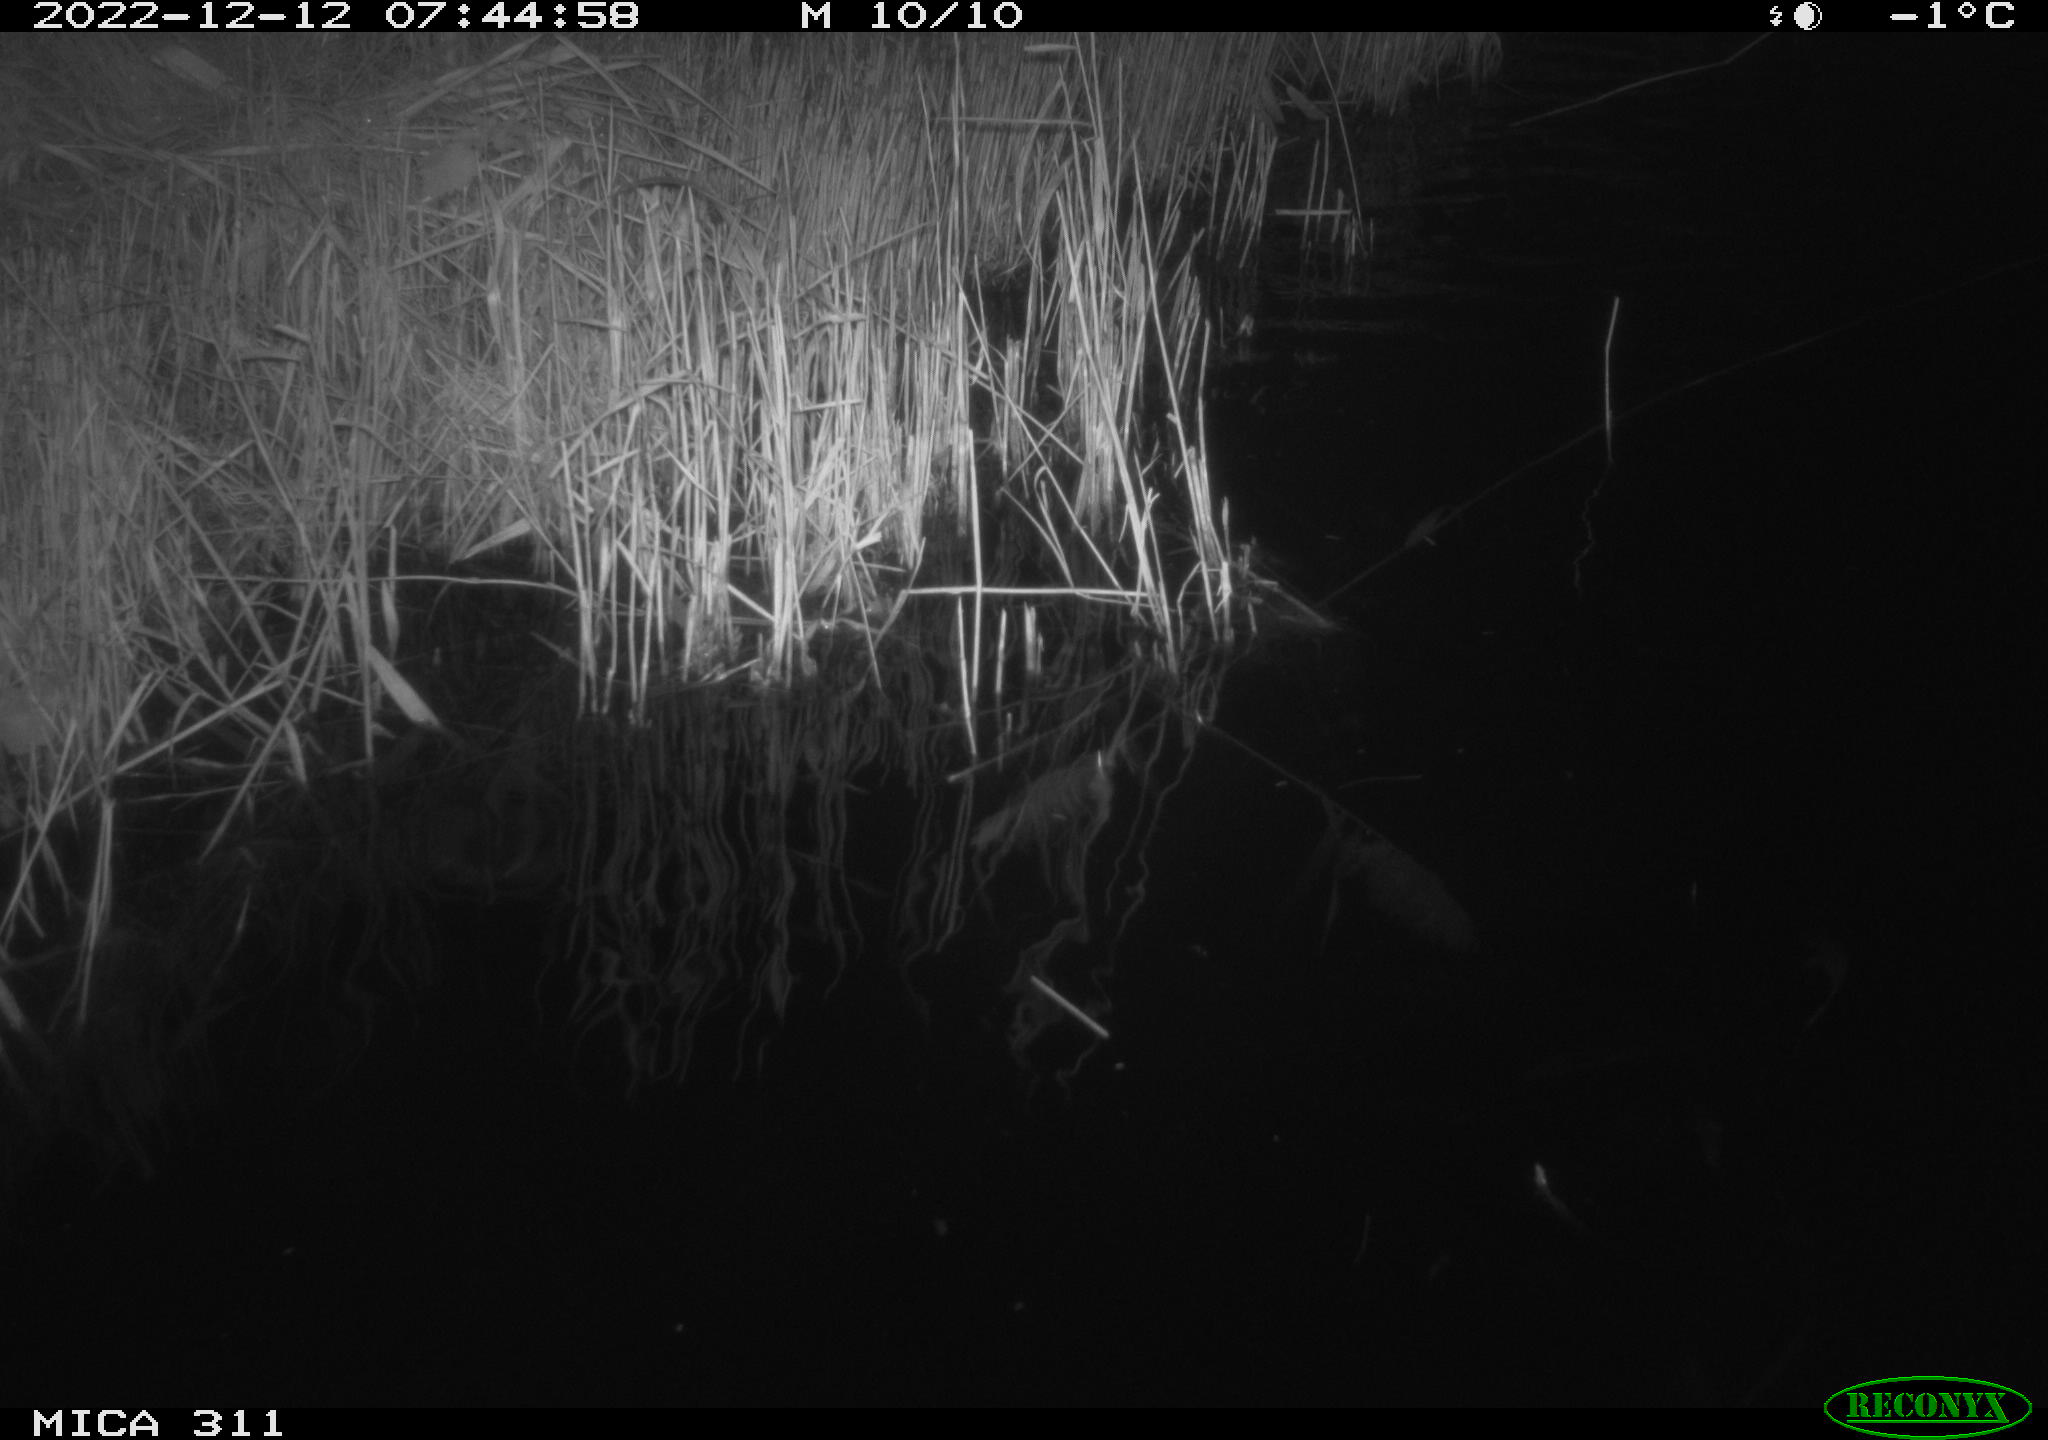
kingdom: Animalia
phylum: Chordata
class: Aves
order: Anseriformes
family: Anatidae
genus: Anas
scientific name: Anas
